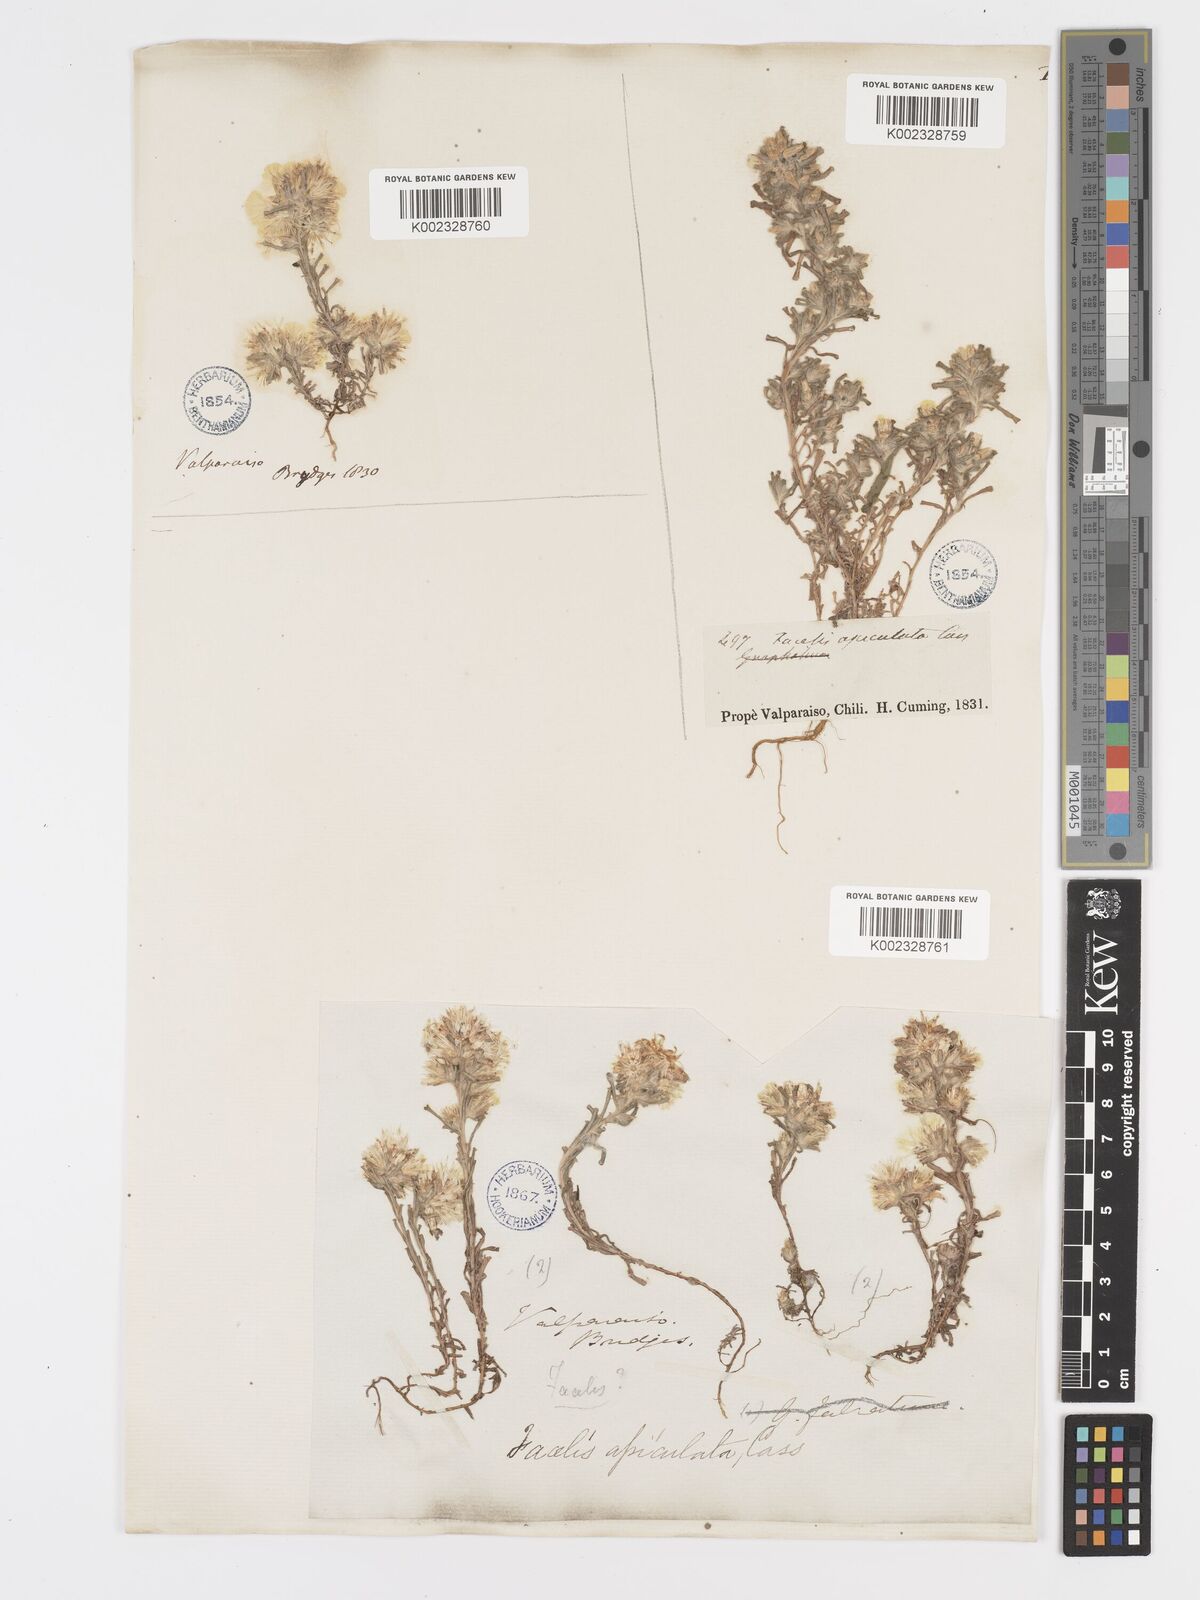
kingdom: Plantae
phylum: Tracheophyta
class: Magnoliopsida
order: Asterales
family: Asteraceae
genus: Facelis
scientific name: Facelis retusa
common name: Annual trampweed
